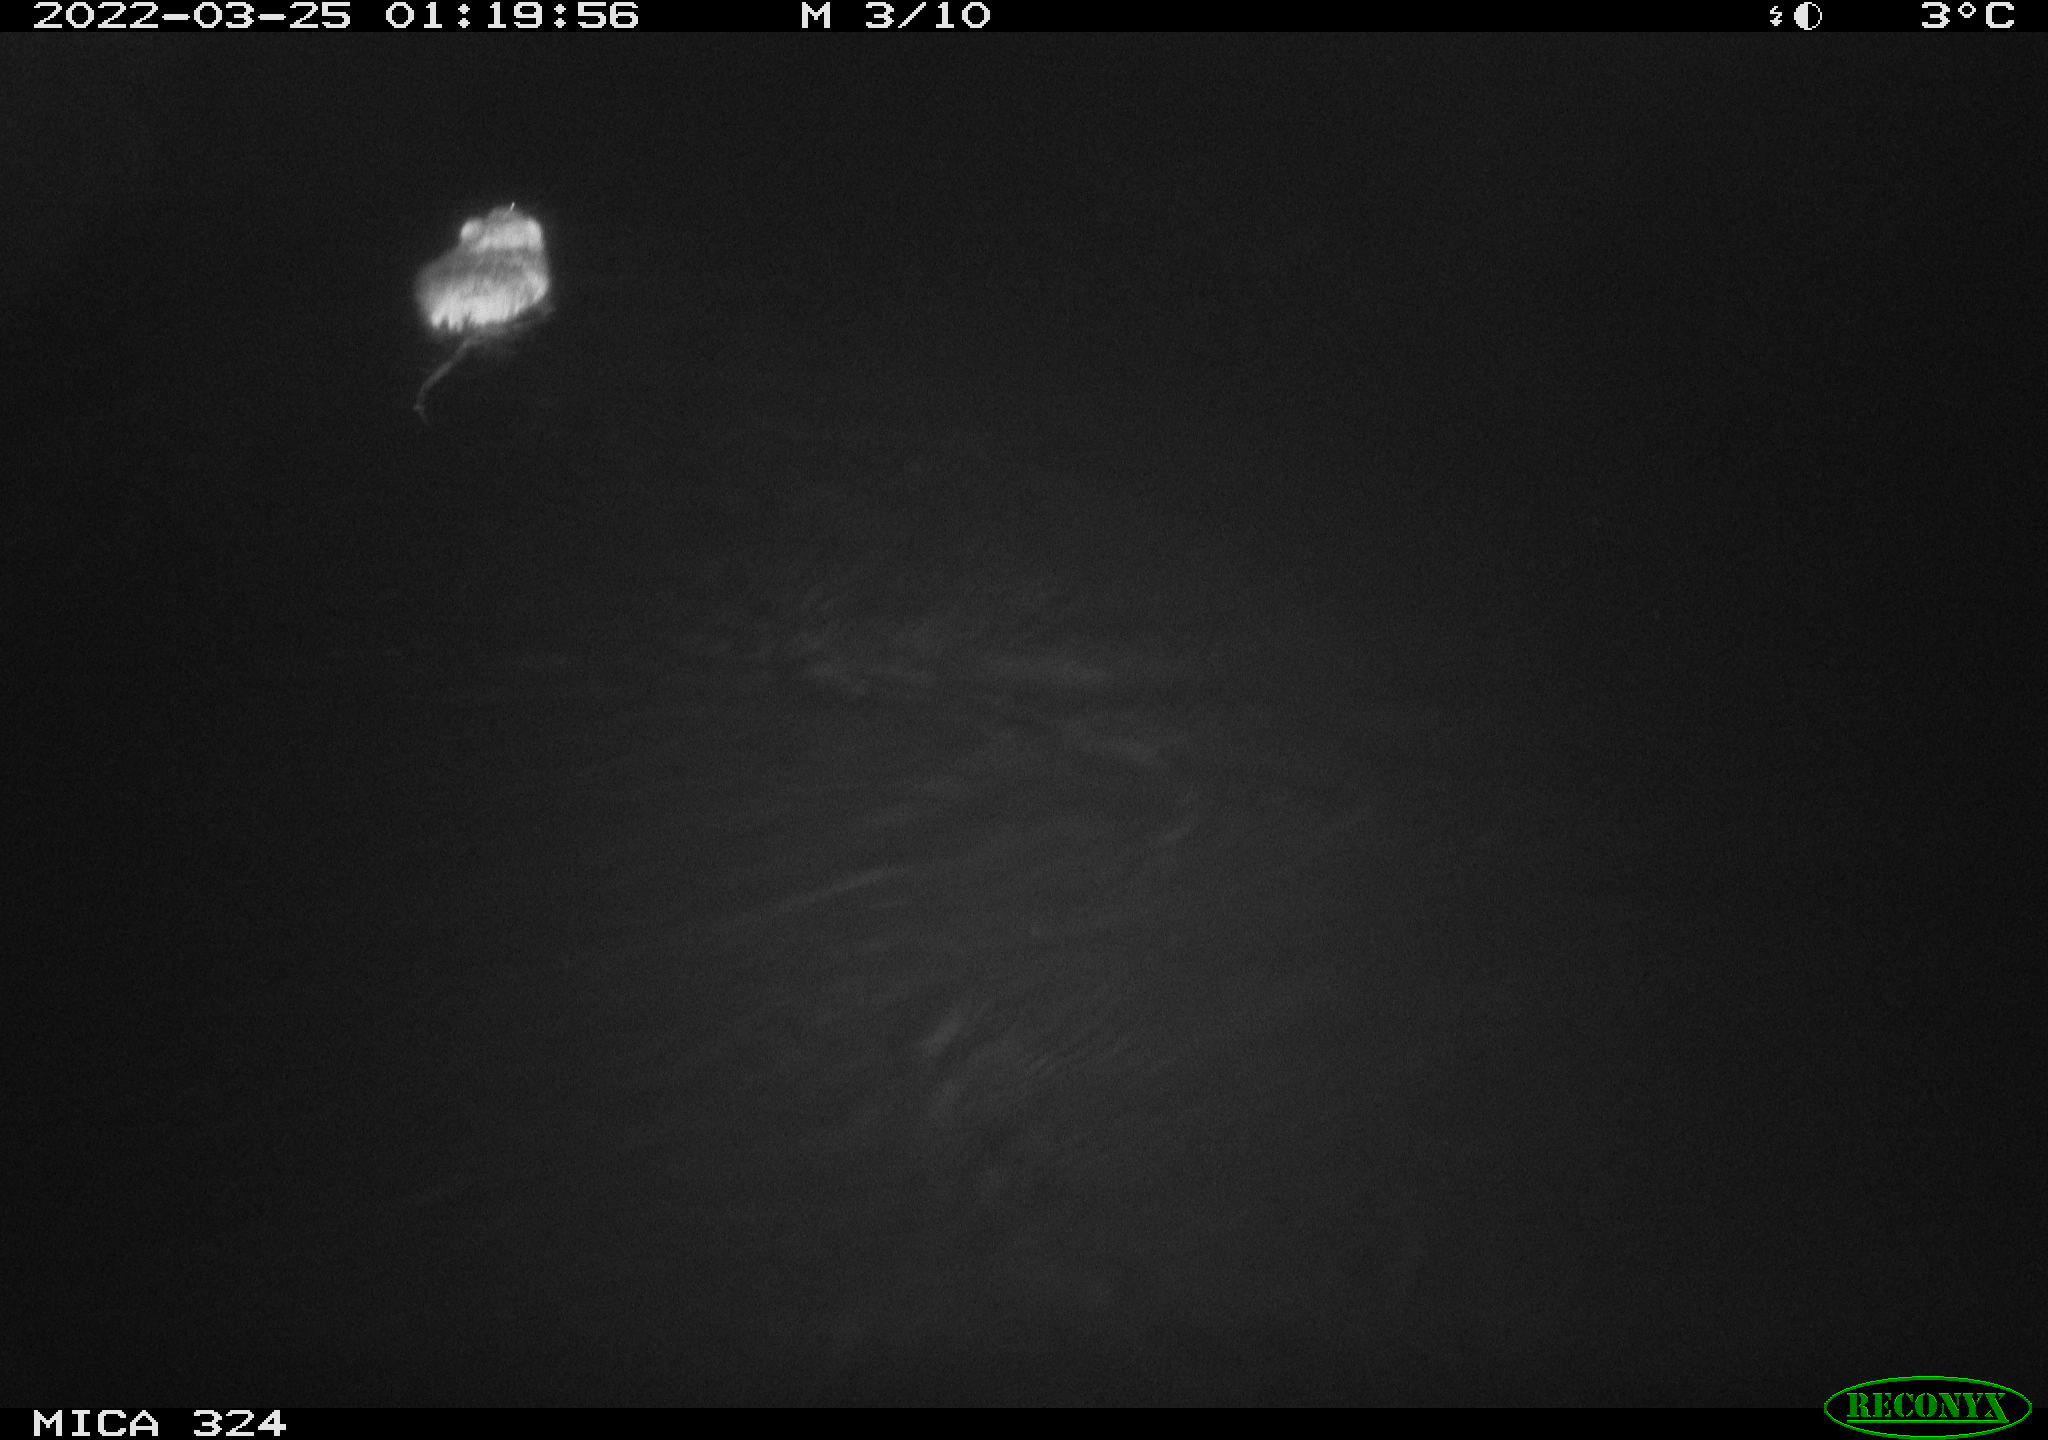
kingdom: Animalia
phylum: Chordata
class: Mammalia
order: Rodentia
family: Cricetidae
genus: Ondatra
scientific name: Ondatra zibethicus
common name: Muskrat
